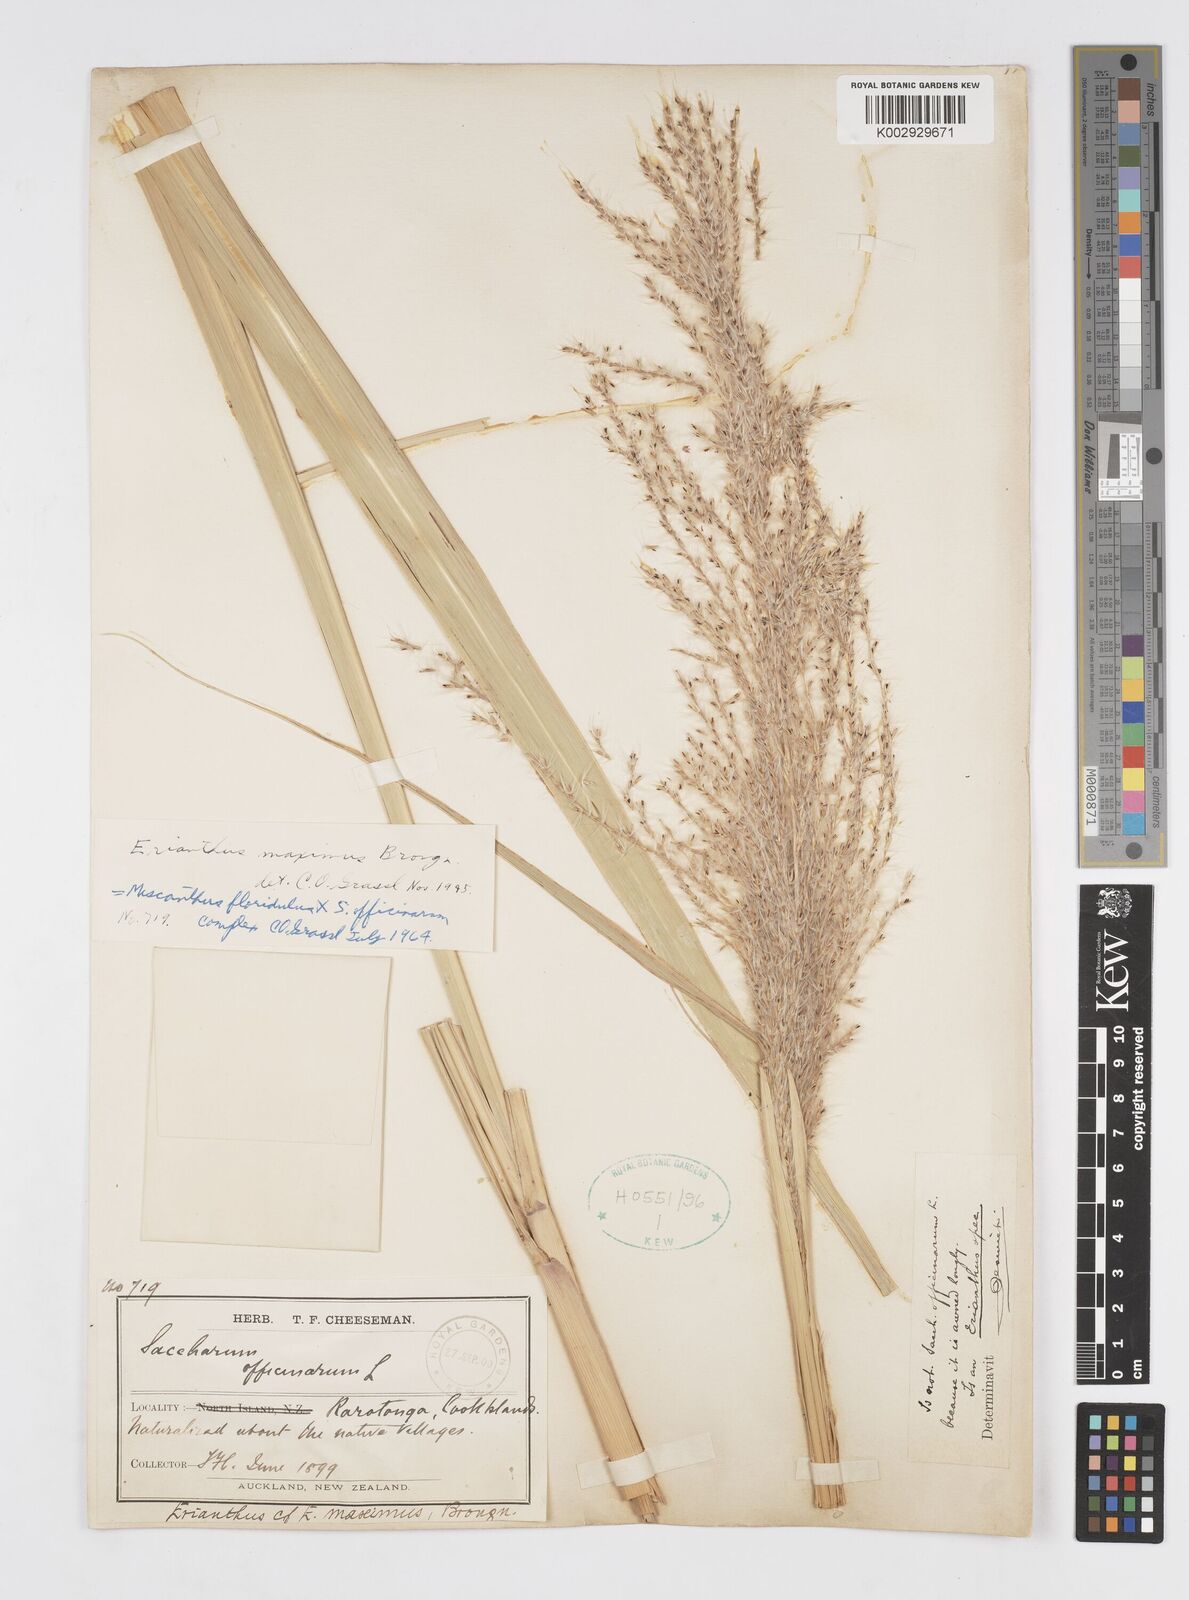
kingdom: Plantae
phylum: Tracheophyta
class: Liliopsida
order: Poales
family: Poaceae
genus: Saccharum
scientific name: Saccharum maximum
